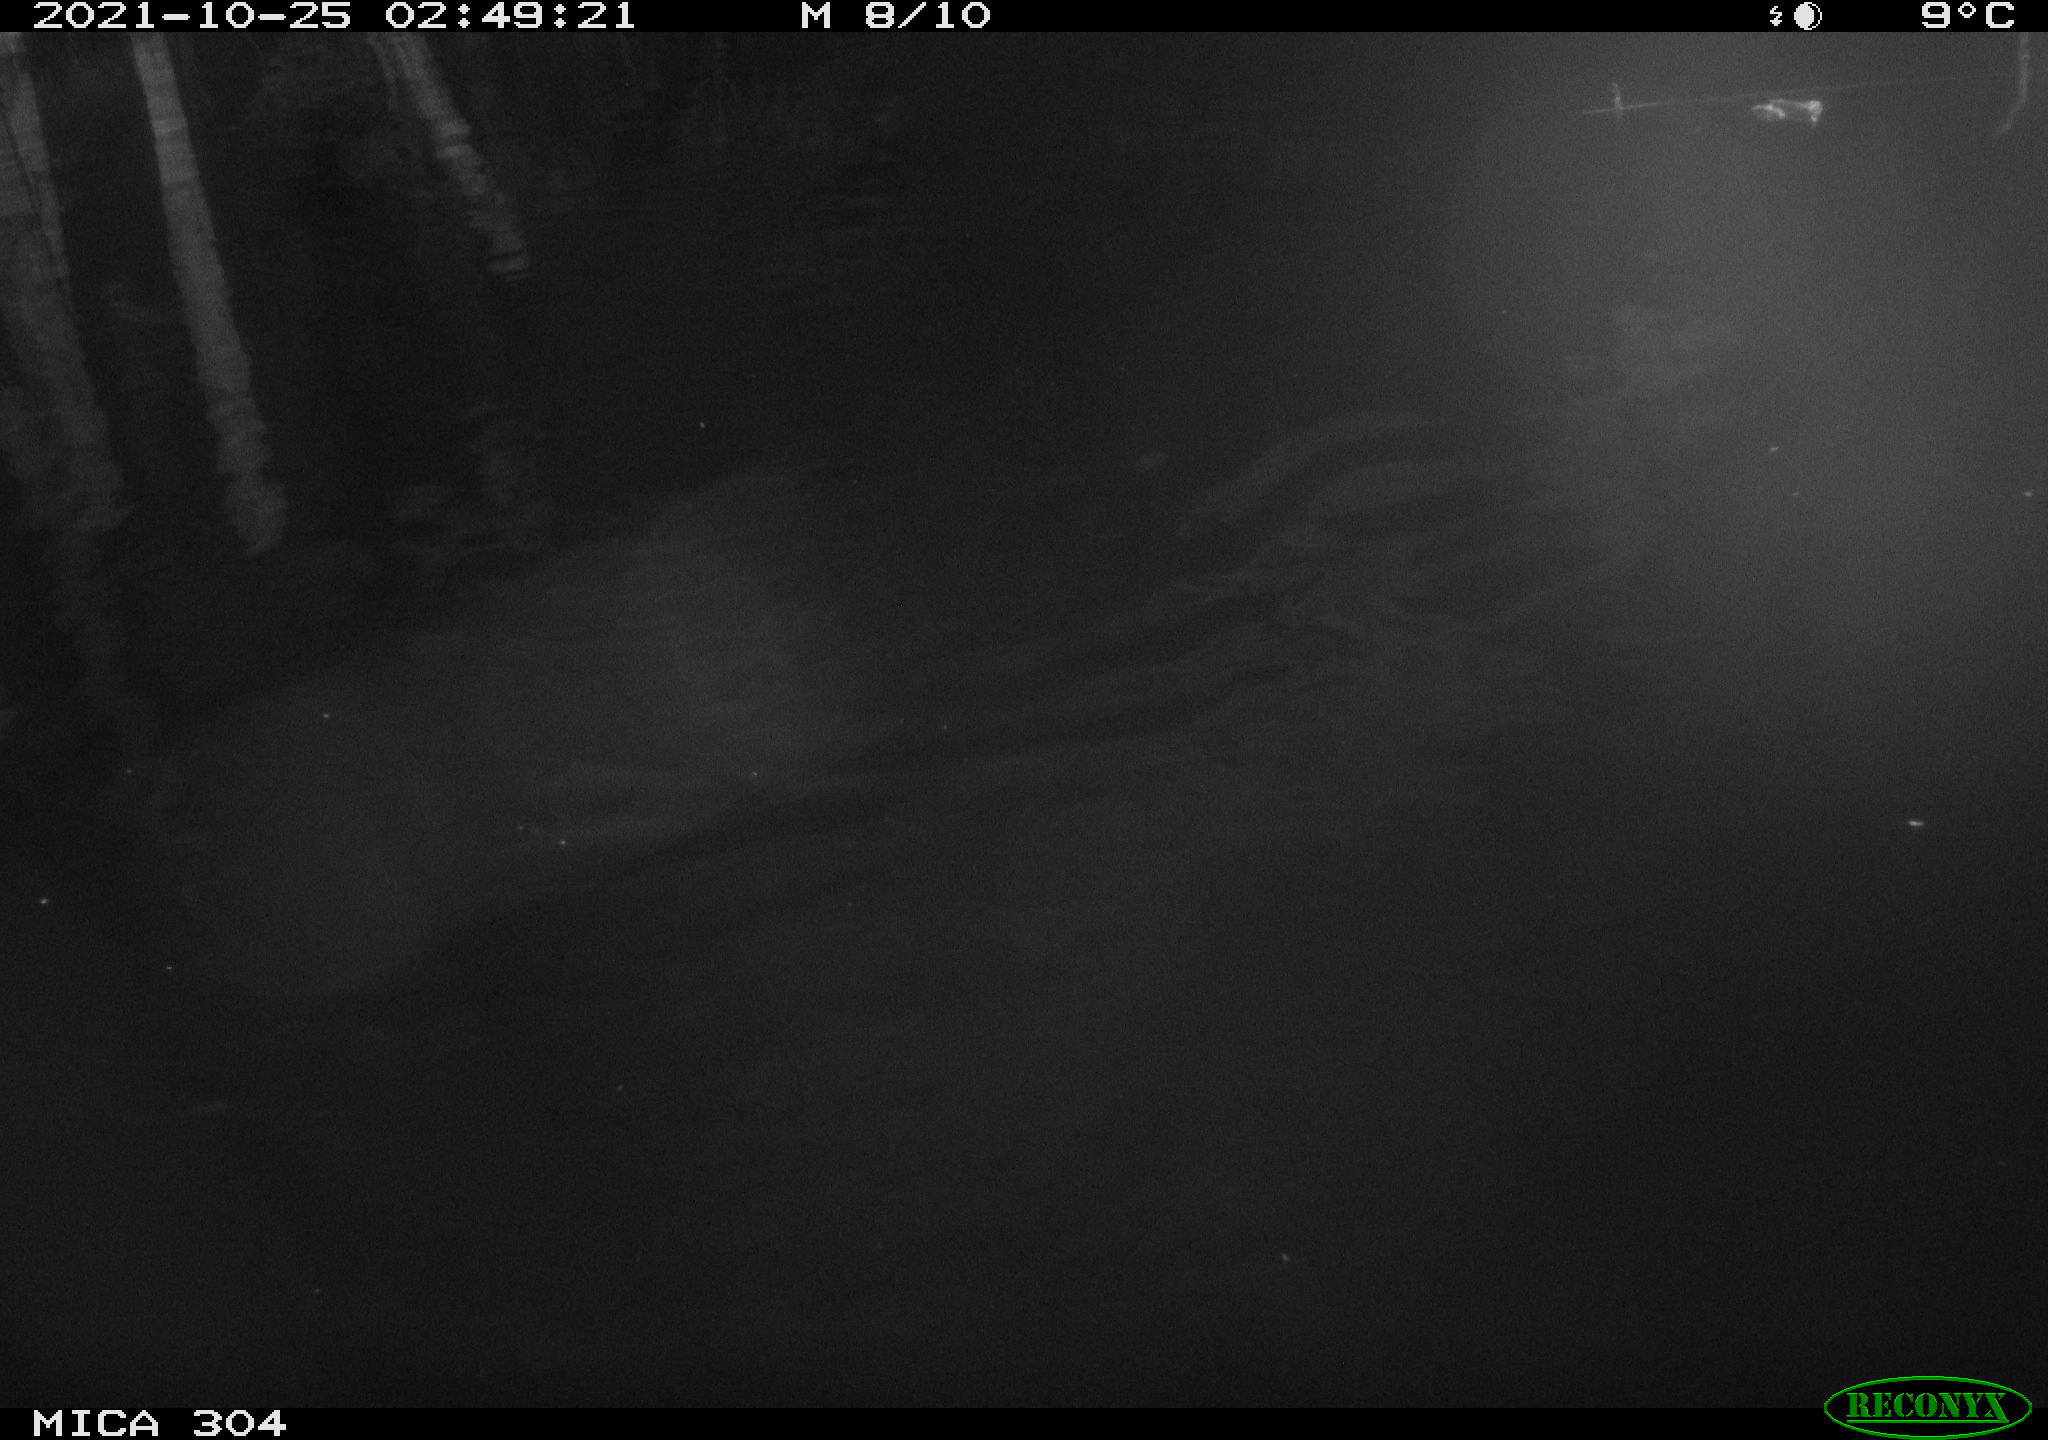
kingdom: Animalia
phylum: Chordata
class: Mammalia
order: Rodentia
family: Cricetidae
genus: Ondatra
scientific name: Ondatra zibethicus
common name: Muskrat
